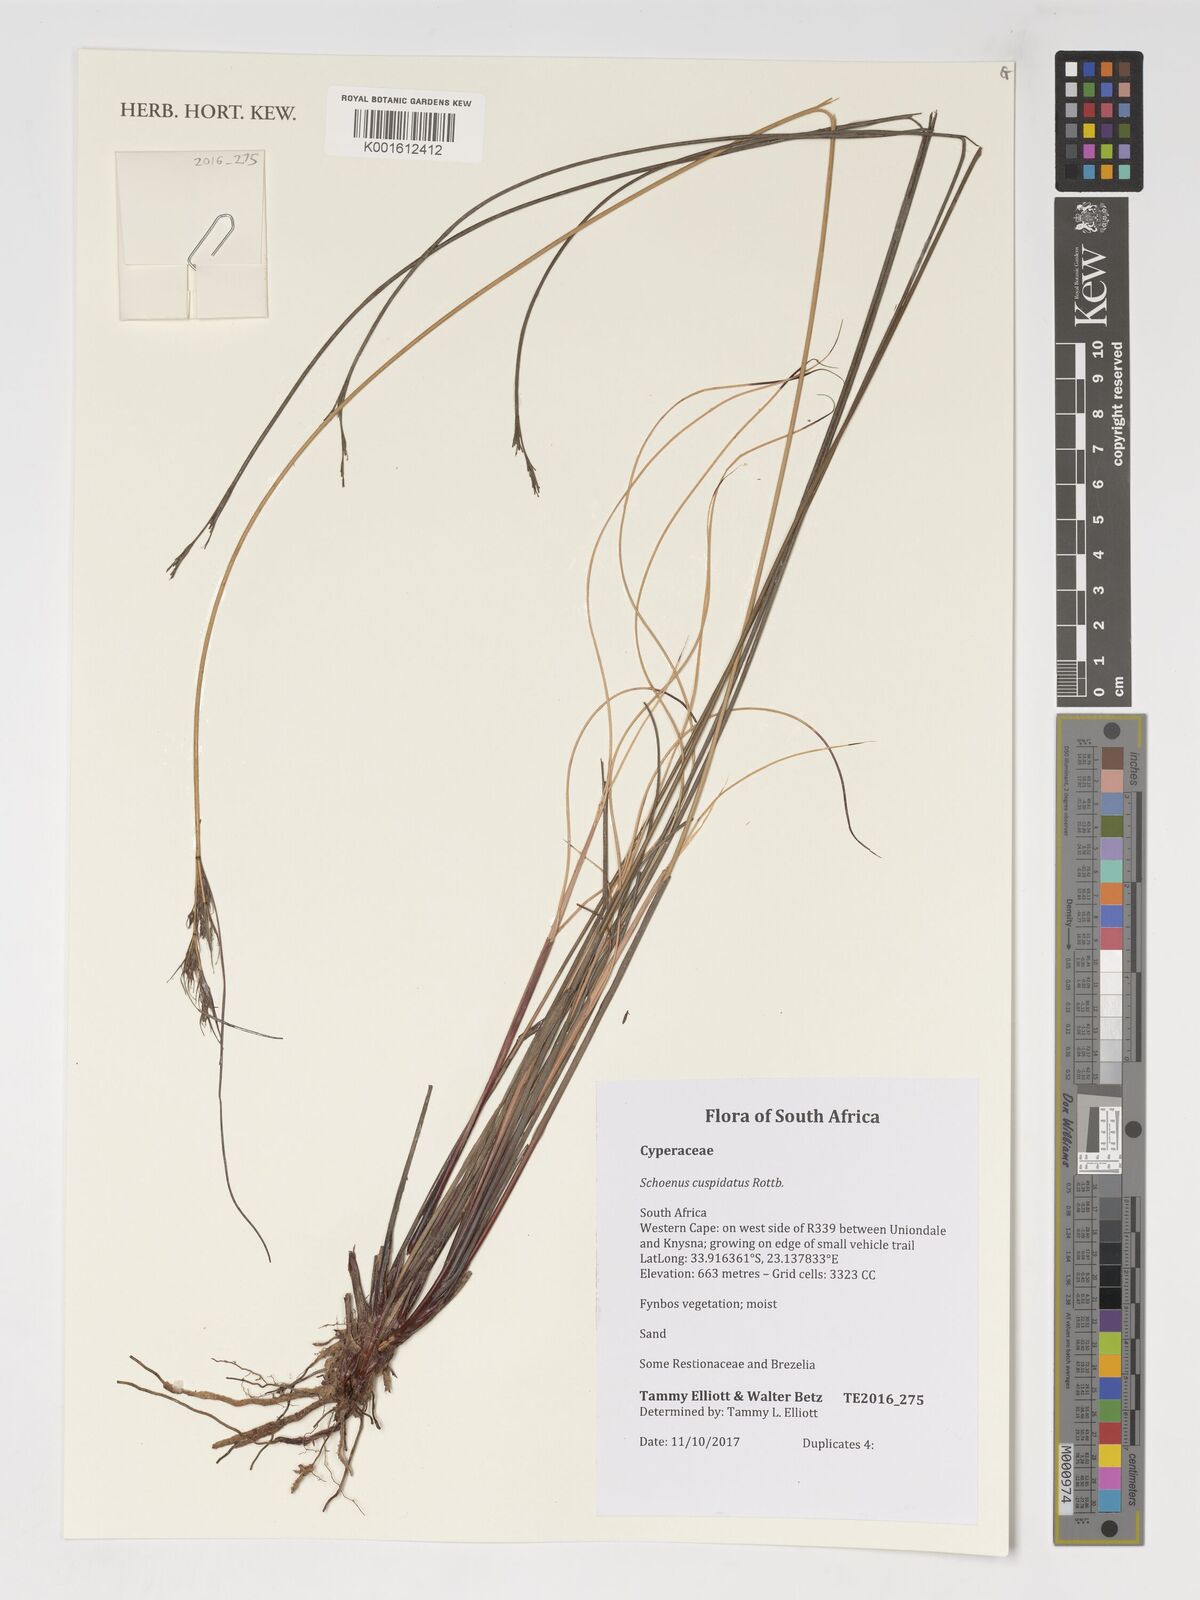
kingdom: Plantae
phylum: Tracheophyta
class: Liliopsida
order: Poales
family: Cyperaceae
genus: Schoenus
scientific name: Schoenus cuspidatus
